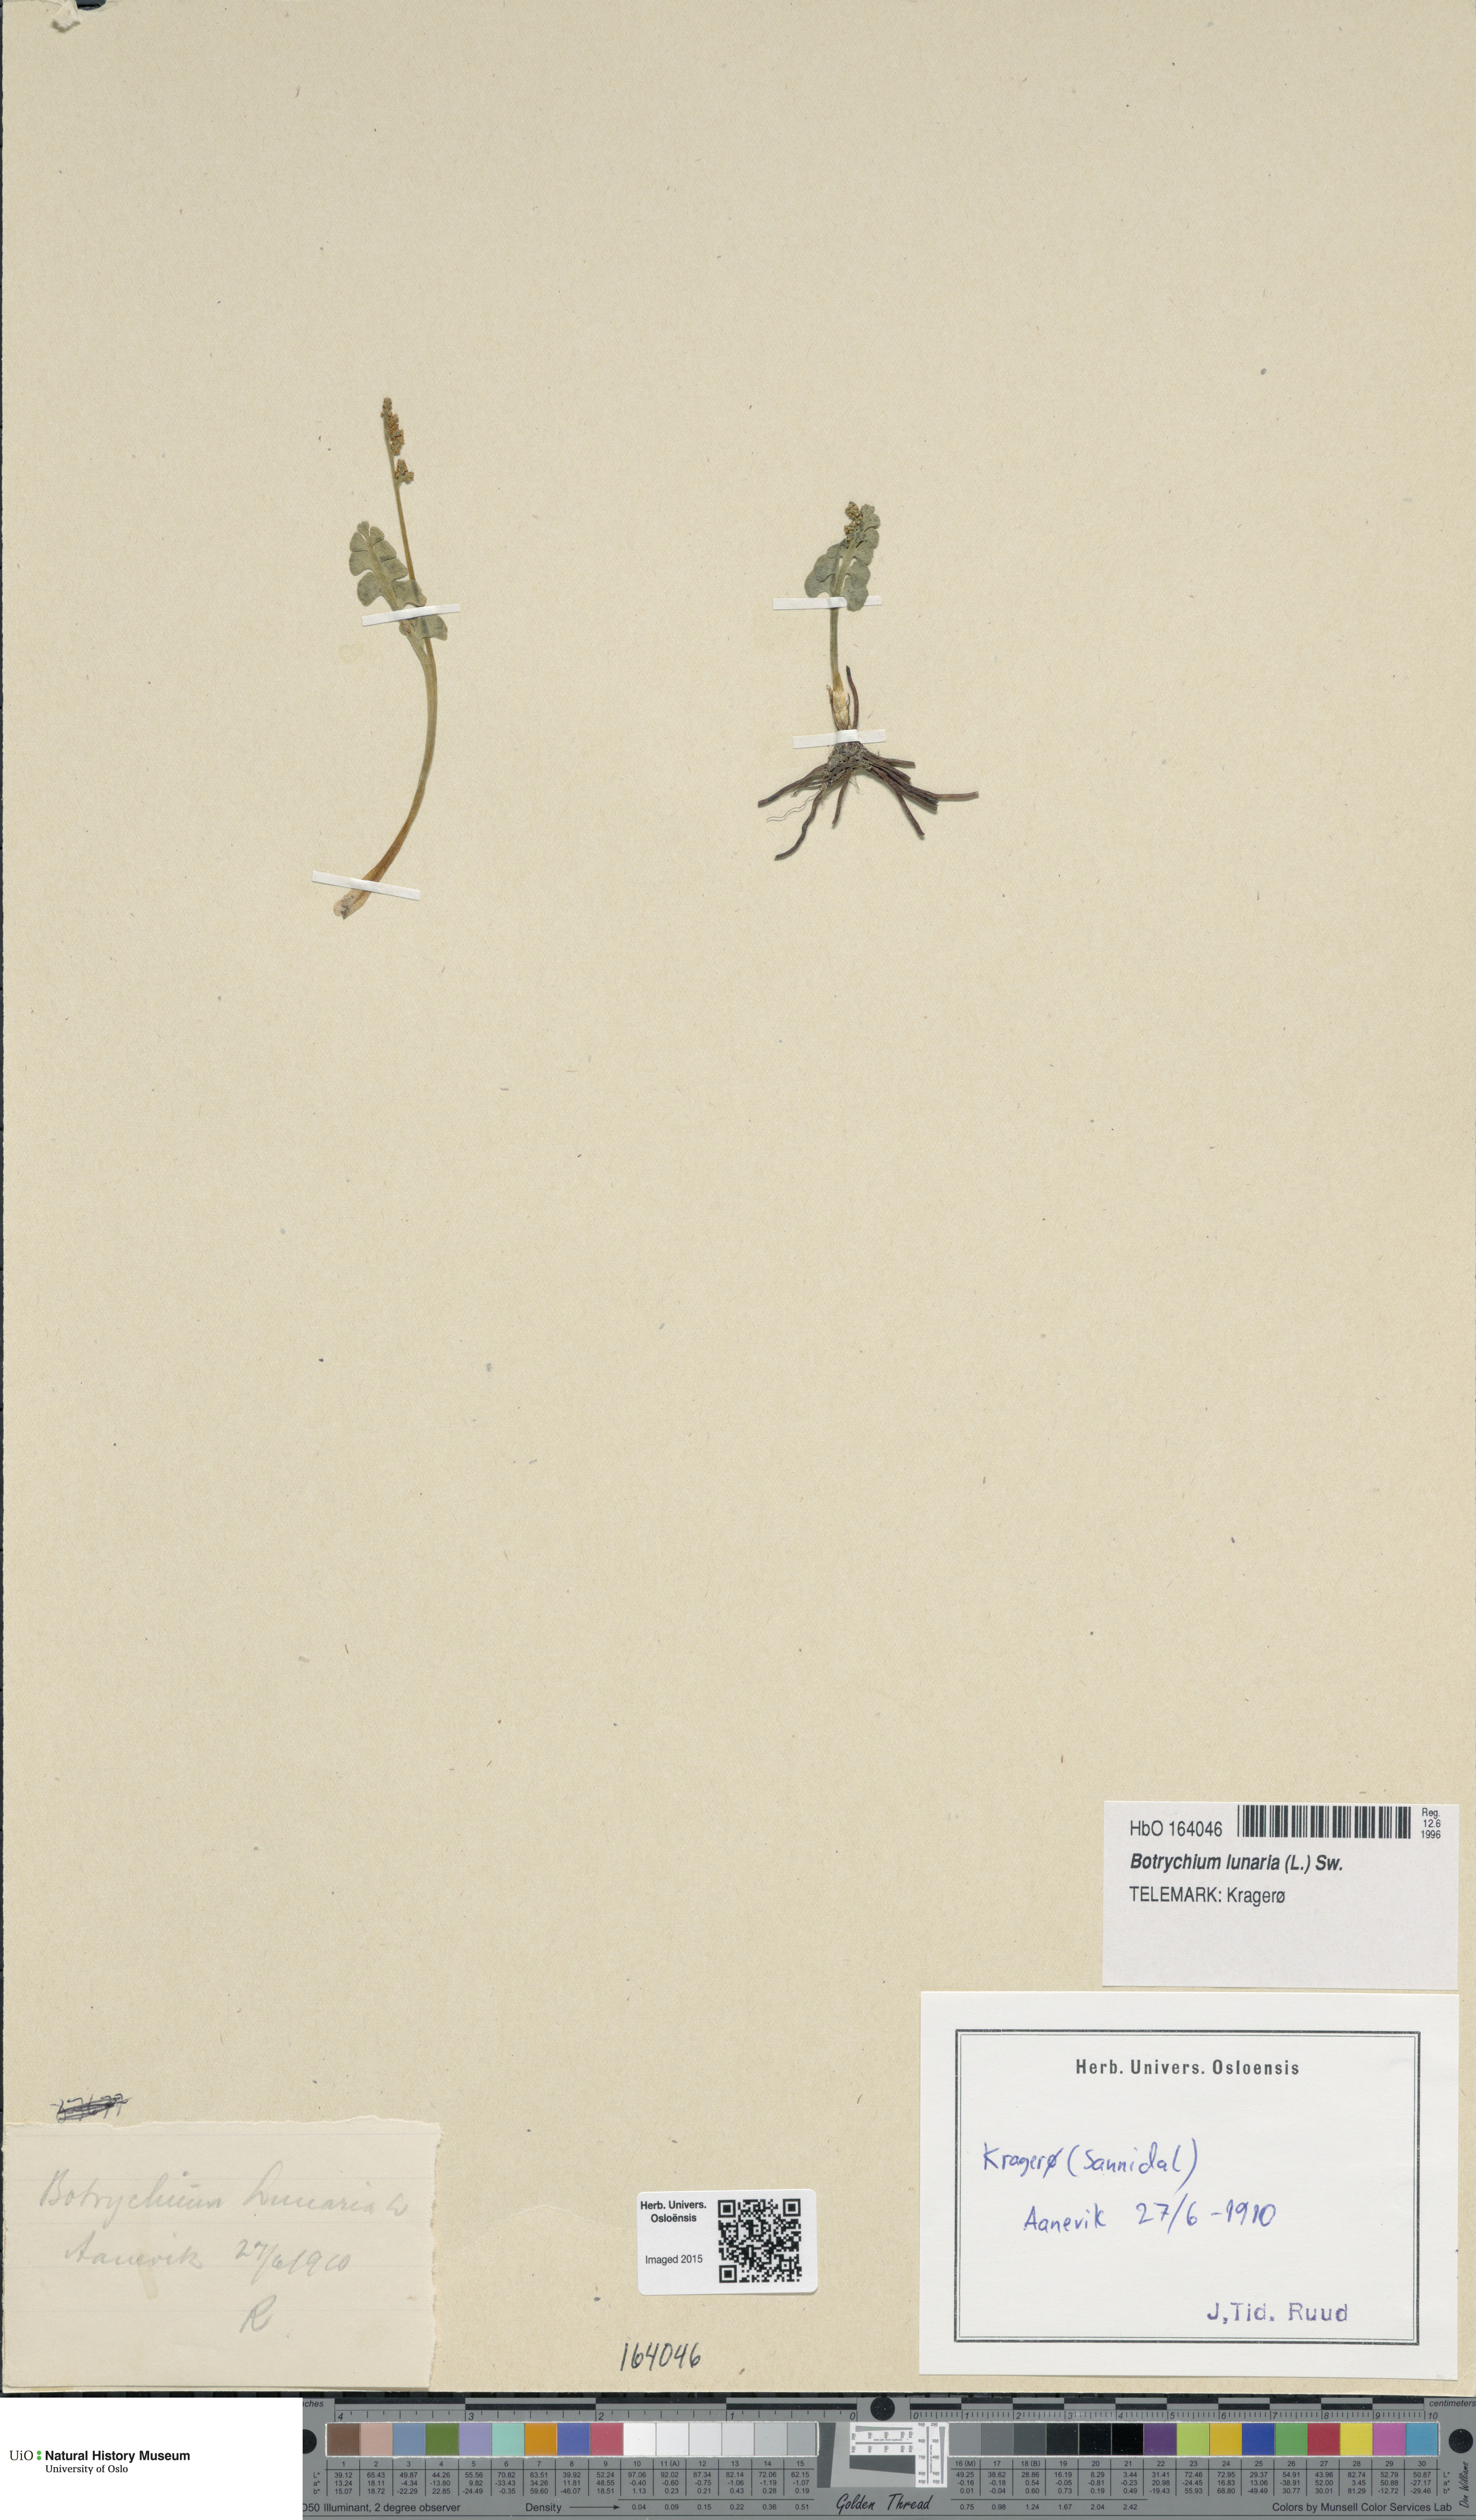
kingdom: Plantae
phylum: Tracheophyta
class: Polypodiopsida
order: Ophioglossales
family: Ophioglossaceae
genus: Botrychium
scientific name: Botrychium lunaria
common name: Moonwort
